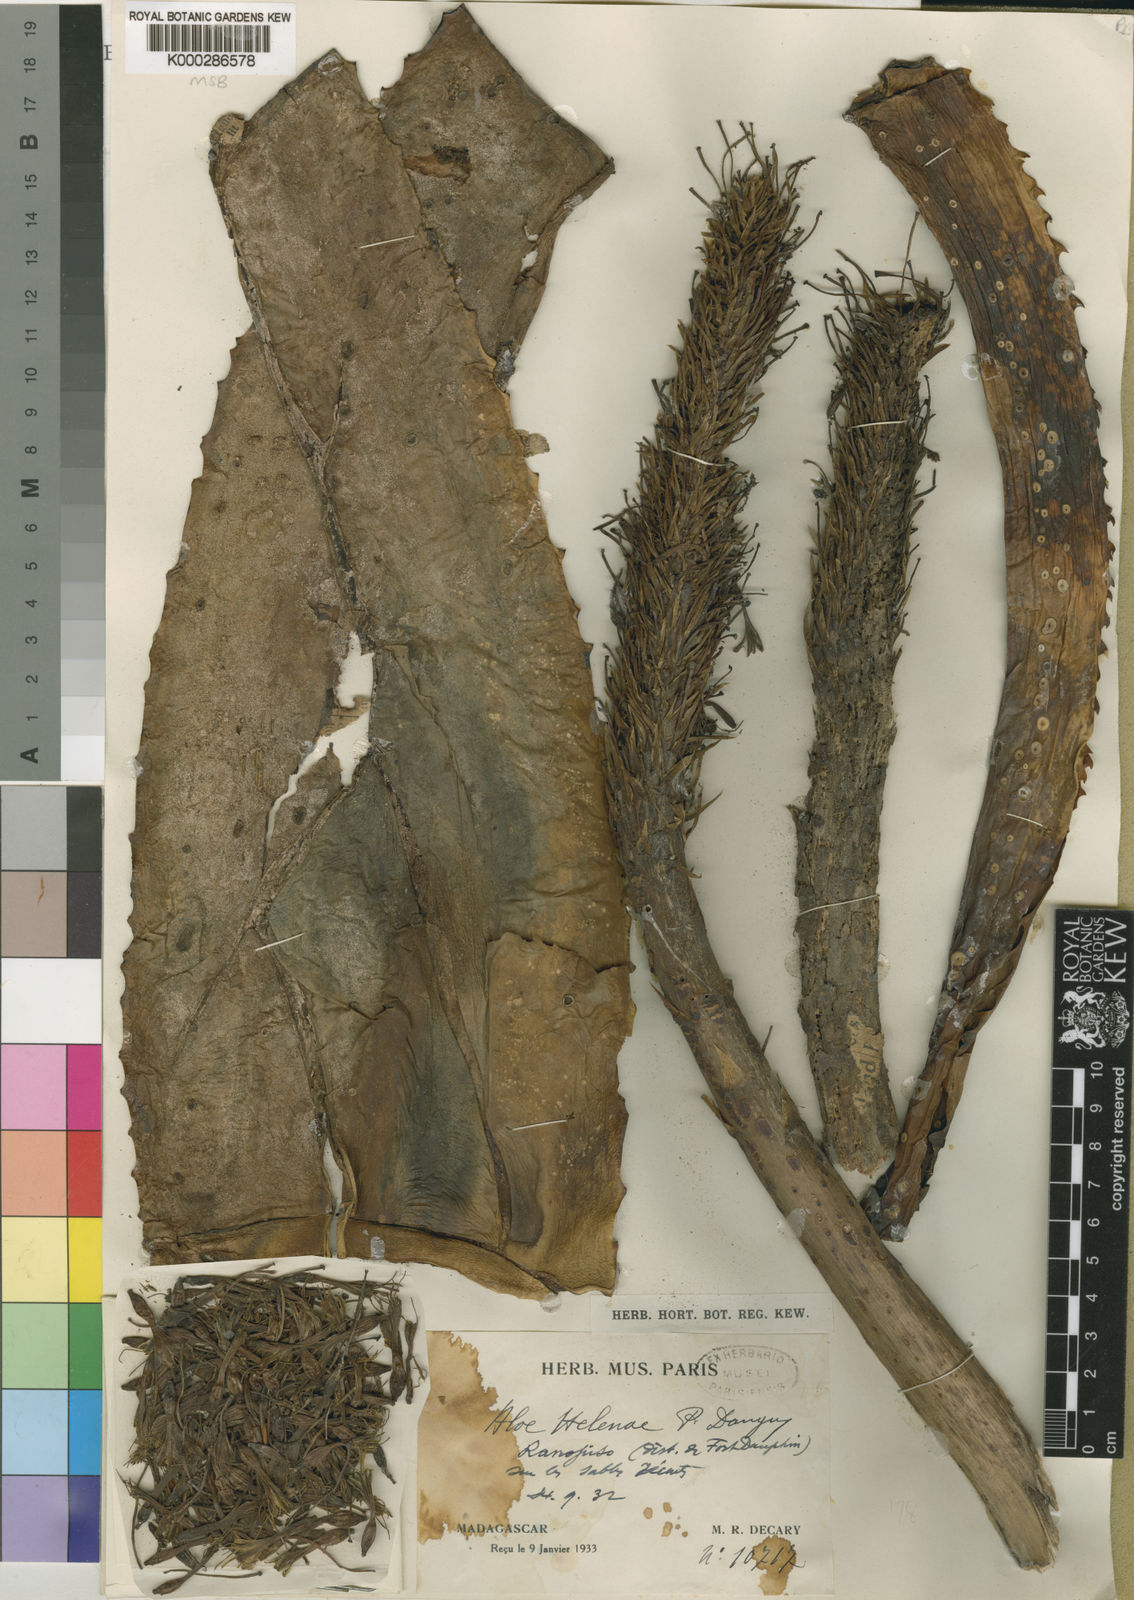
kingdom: Plantae
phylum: Tracheophyta
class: Liliopsida
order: Asparagales
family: Asphodelaceae
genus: Aloe
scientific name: Aloe helenae
